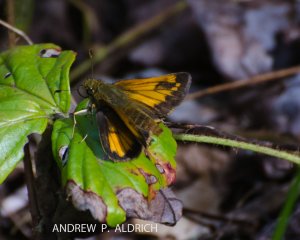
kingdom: Animalia
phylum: Arthropoda
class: Insecta
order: Lepidoptera
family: Hesperiidae
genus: Lon
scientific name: Lon hobomok
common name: Hobomok Skipper
